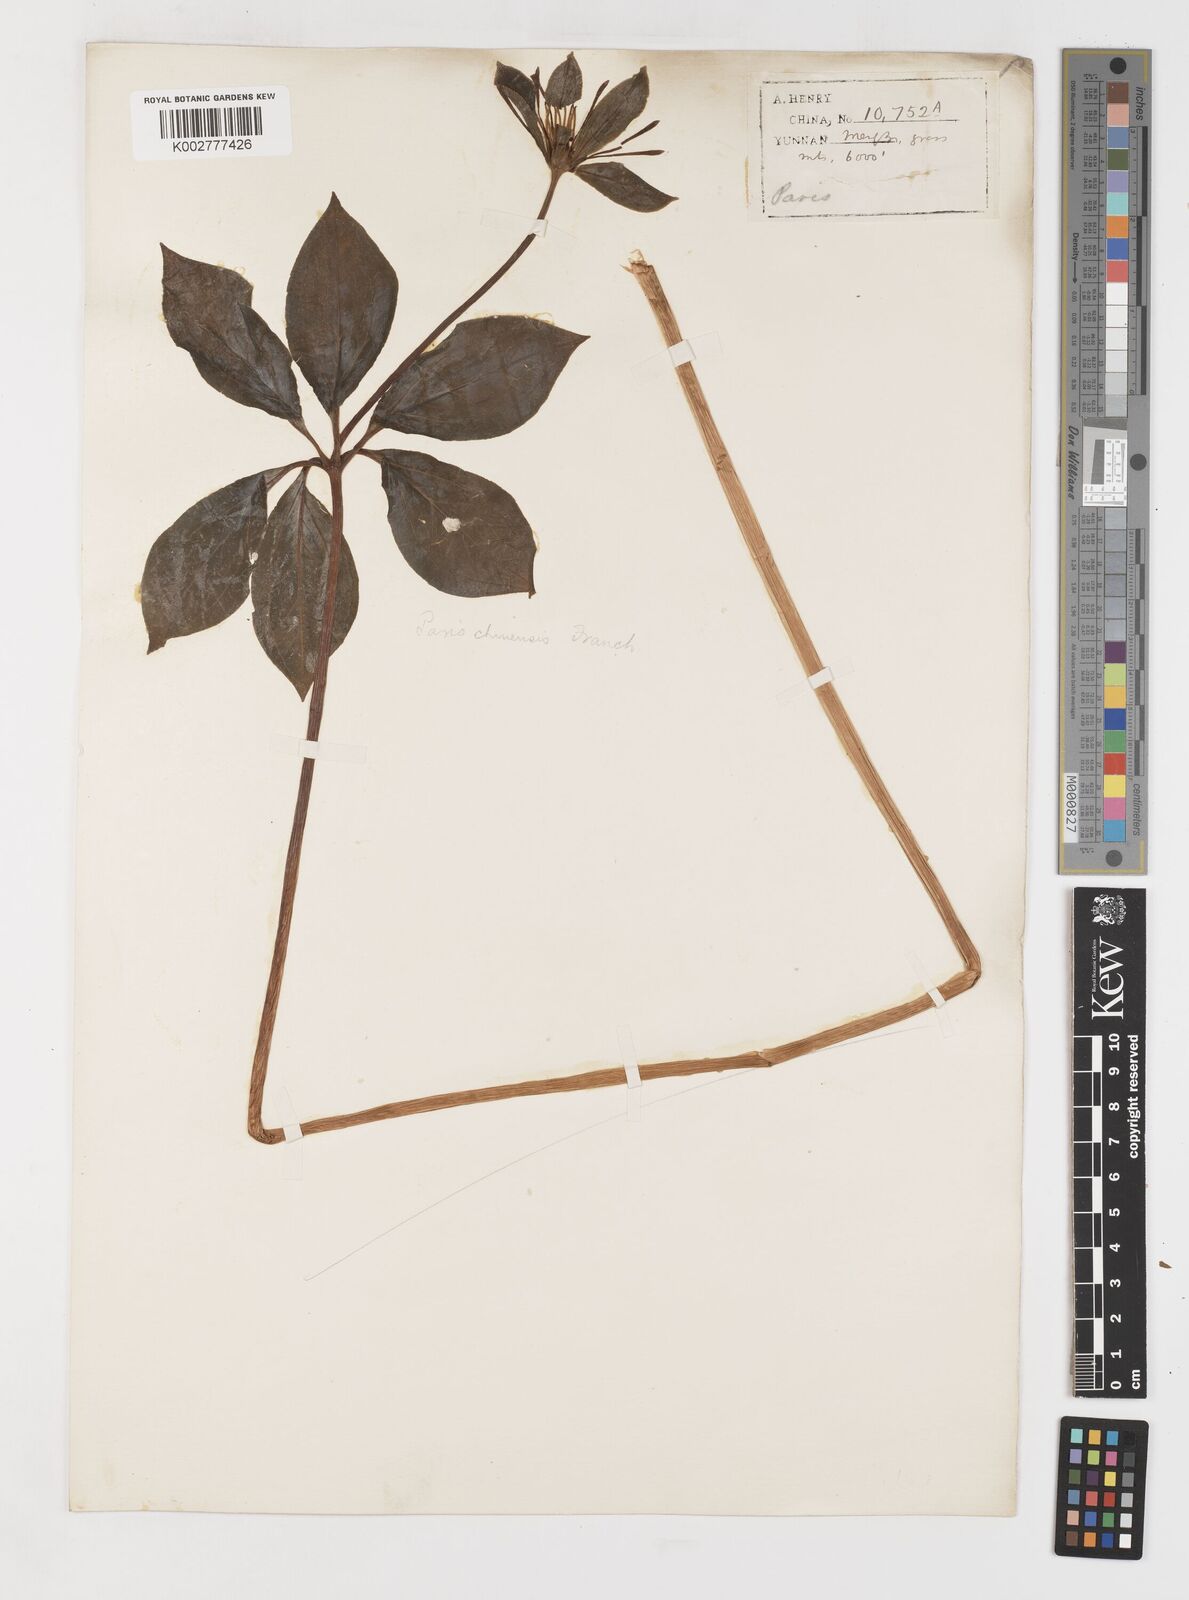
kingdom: Plantae
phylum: Tracheophyta
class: Liliopsida
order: Liliales
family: Melanthiaceae
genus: Paris
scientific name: Paris chinensis
